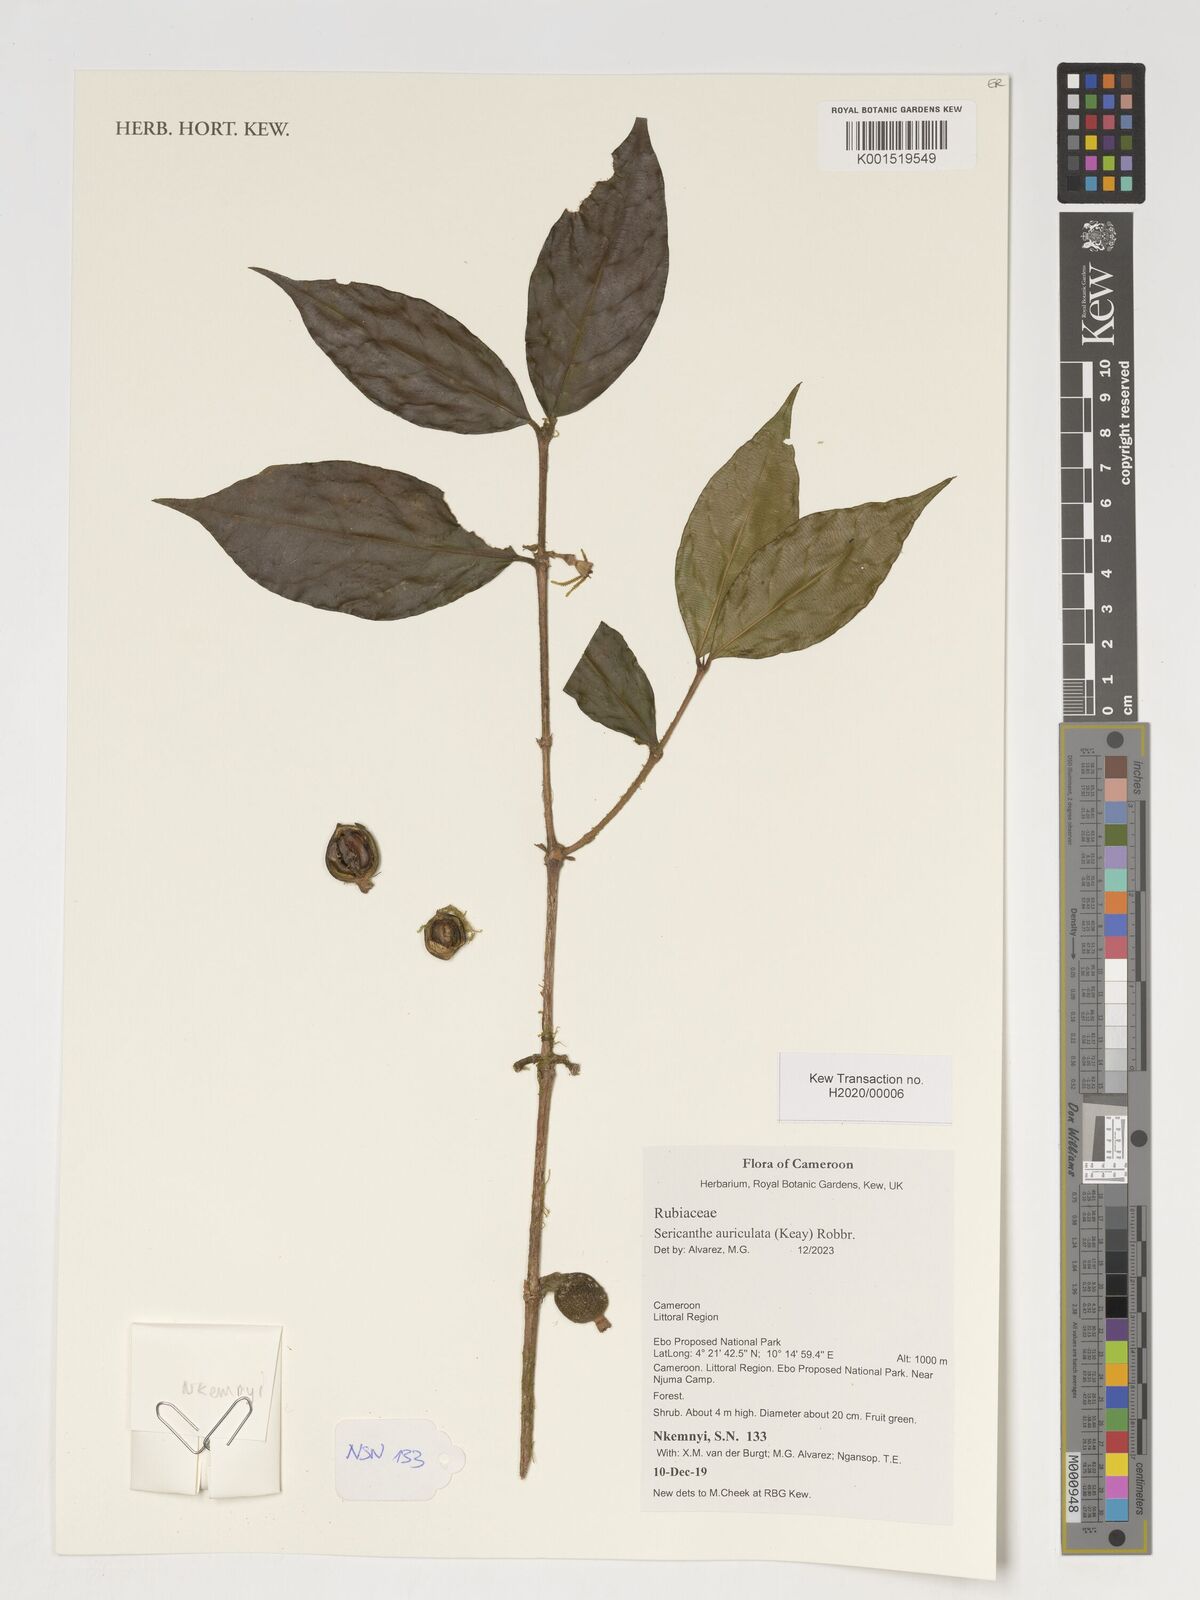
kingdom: Plantae
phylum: Tracheophyta
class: Magnoliopsida
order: Gentianales
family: Rubiaceae
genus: Sericanthe
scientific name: Sericanthe auriculata
